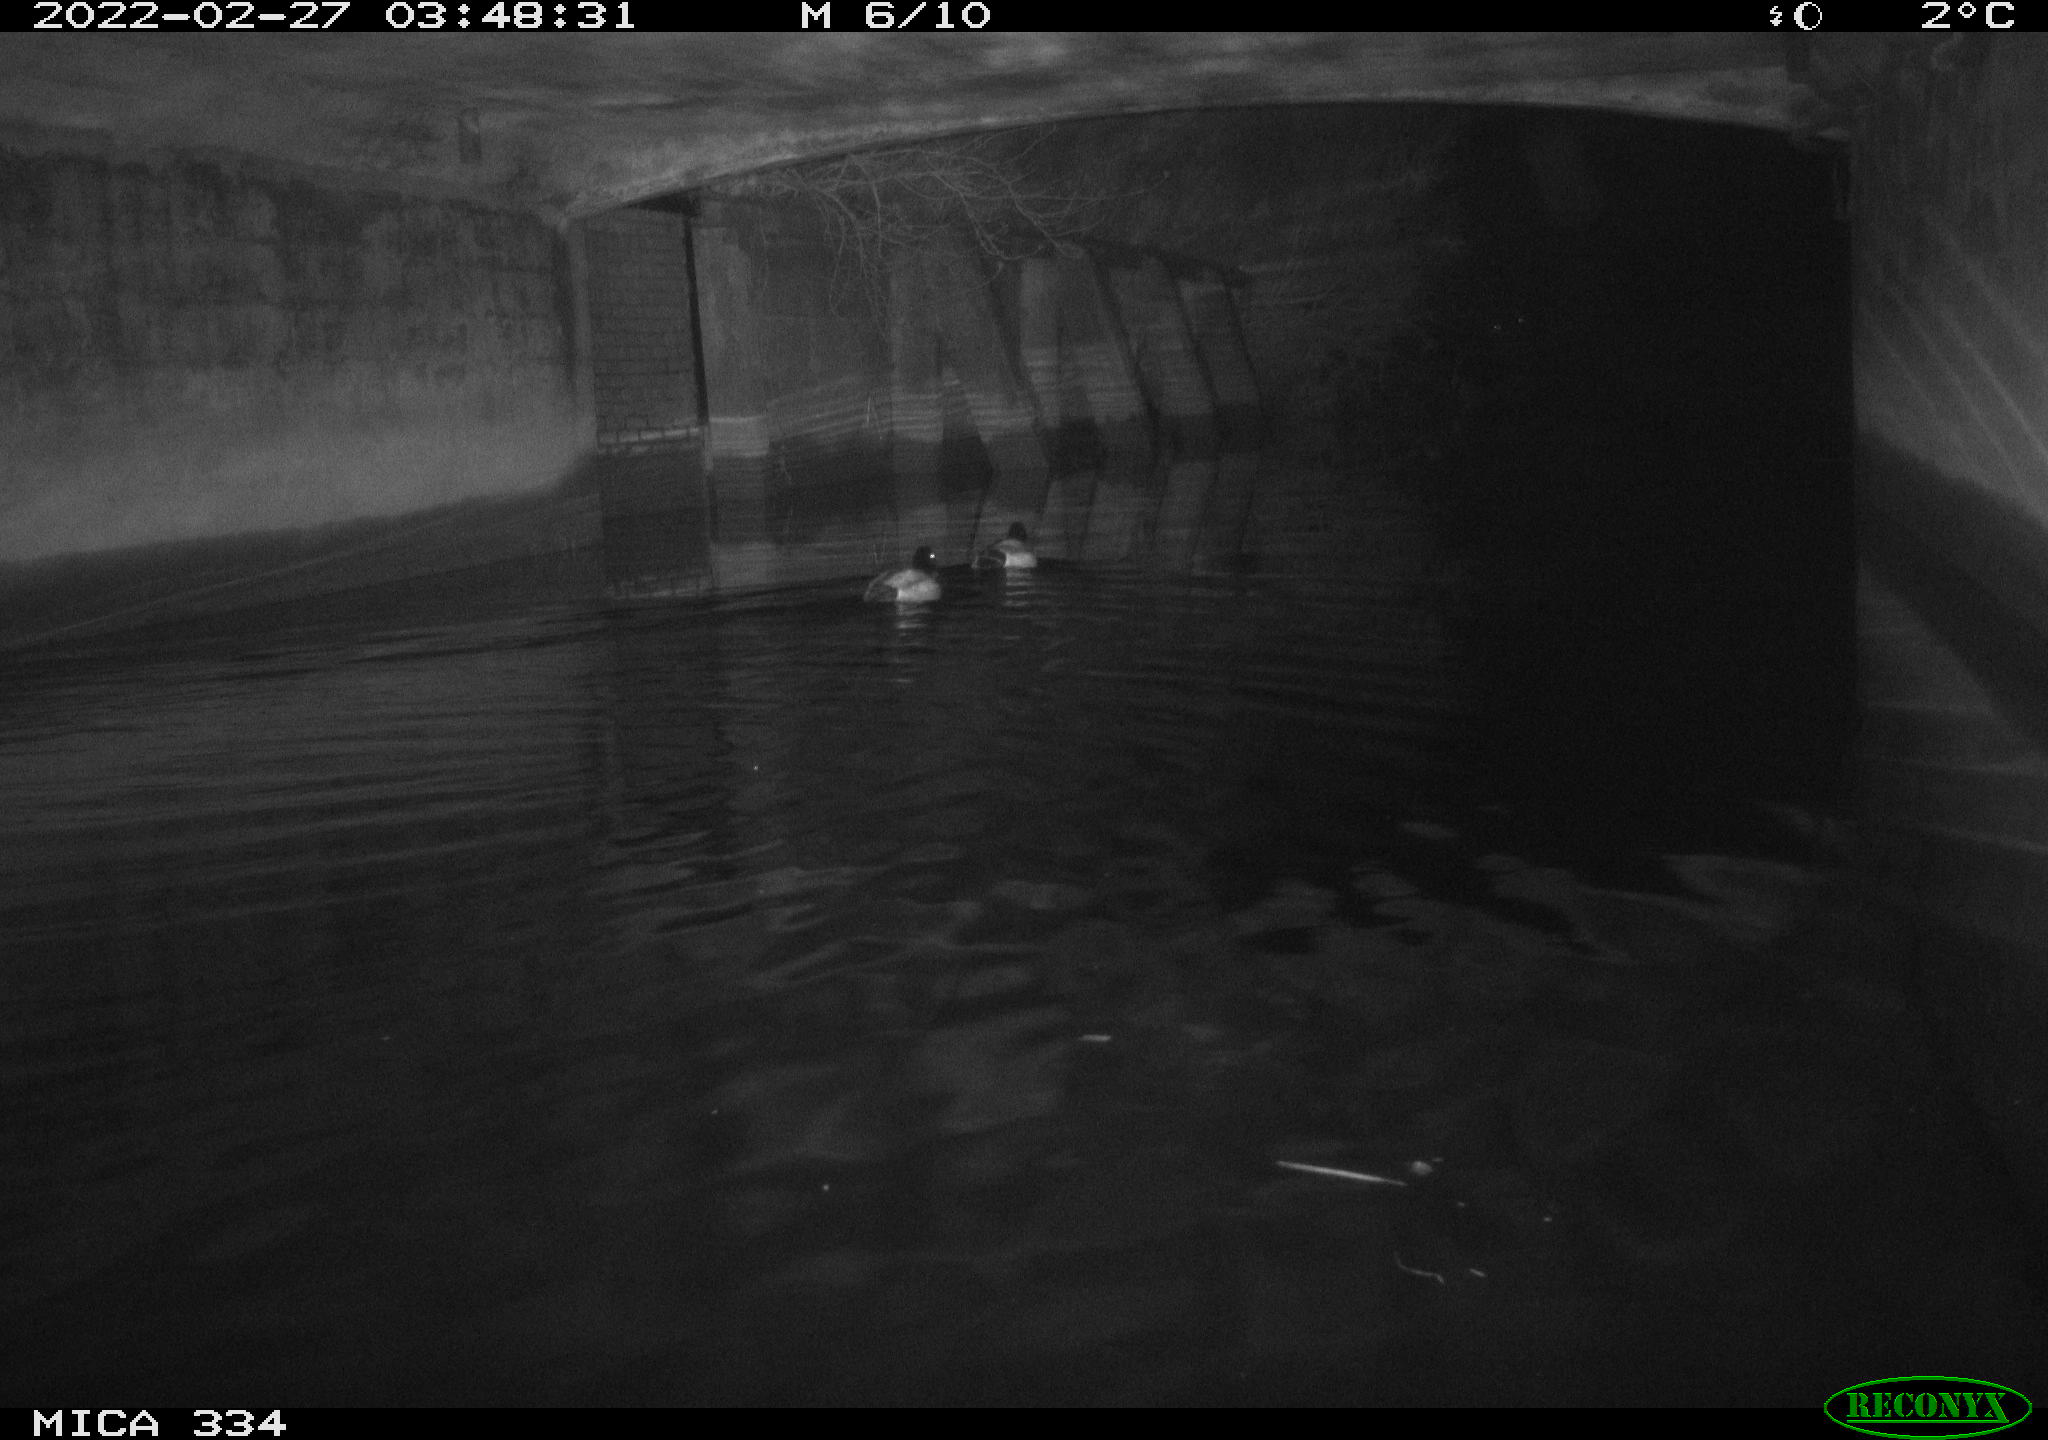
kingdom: Animalia
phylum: Chordata
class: Aves
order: Anseriformes
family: Anatidae
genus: Anas
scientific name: Anas platyrhynchos
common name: Mallard
